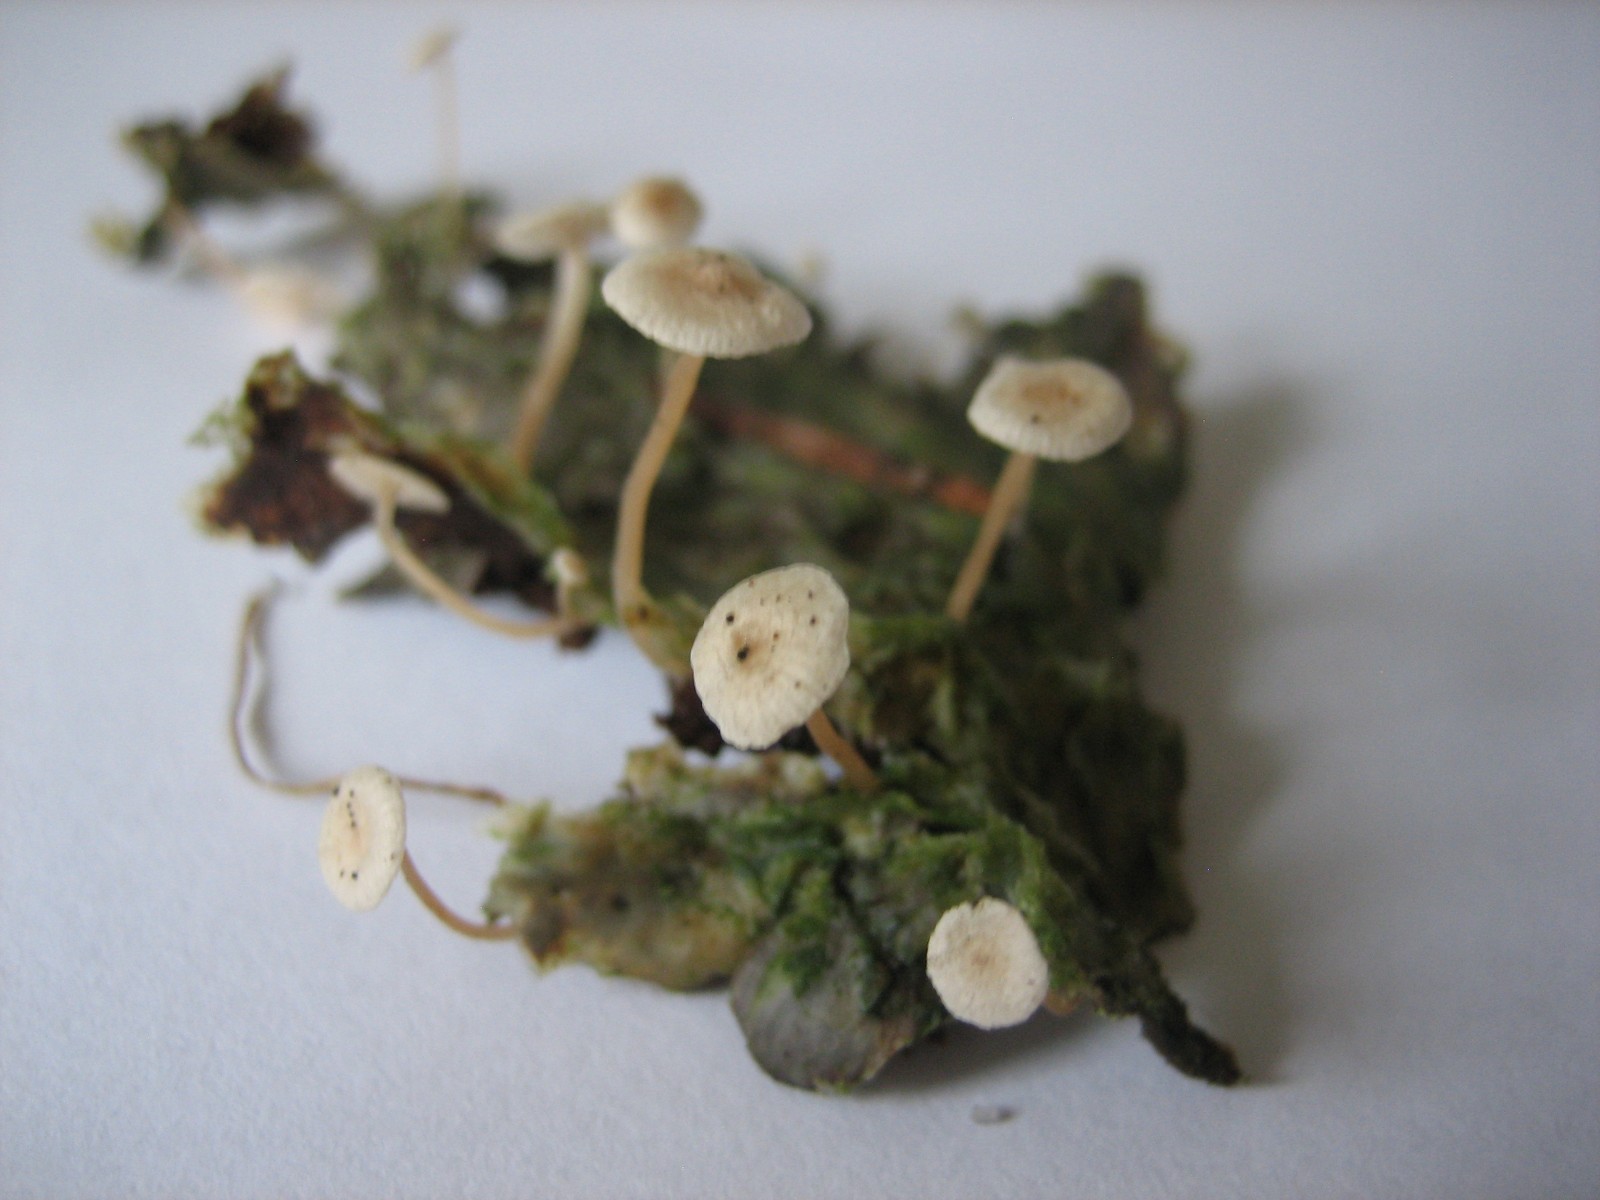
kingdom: Fungi
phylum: Basidiomycota
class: Agaricomycetes
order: Agaricales
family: Tricholomataceae
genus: Collybia
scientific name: Collybia cirrhata
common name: silke-lighat
